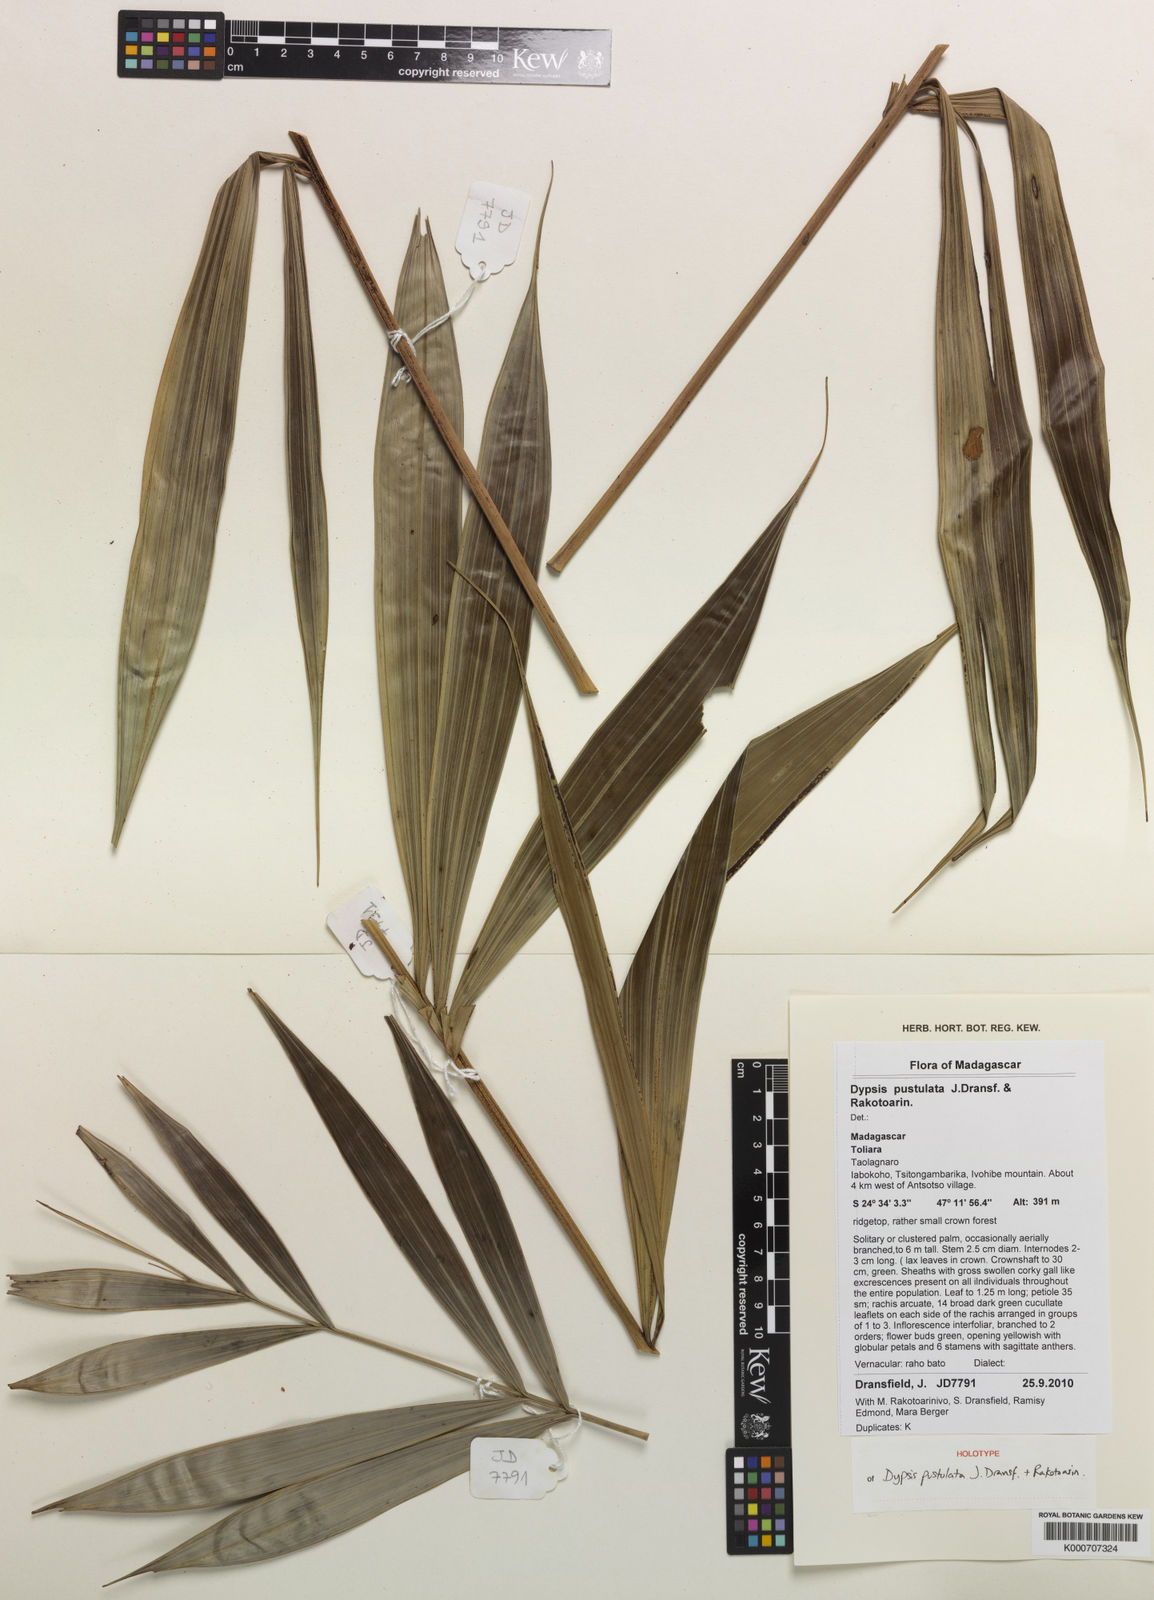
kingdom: Plantae
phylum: Tracheophyta
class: Liliopsida
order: Arecales
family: Arecaceae
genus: Dypsis
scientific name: Dypsis pustulata
